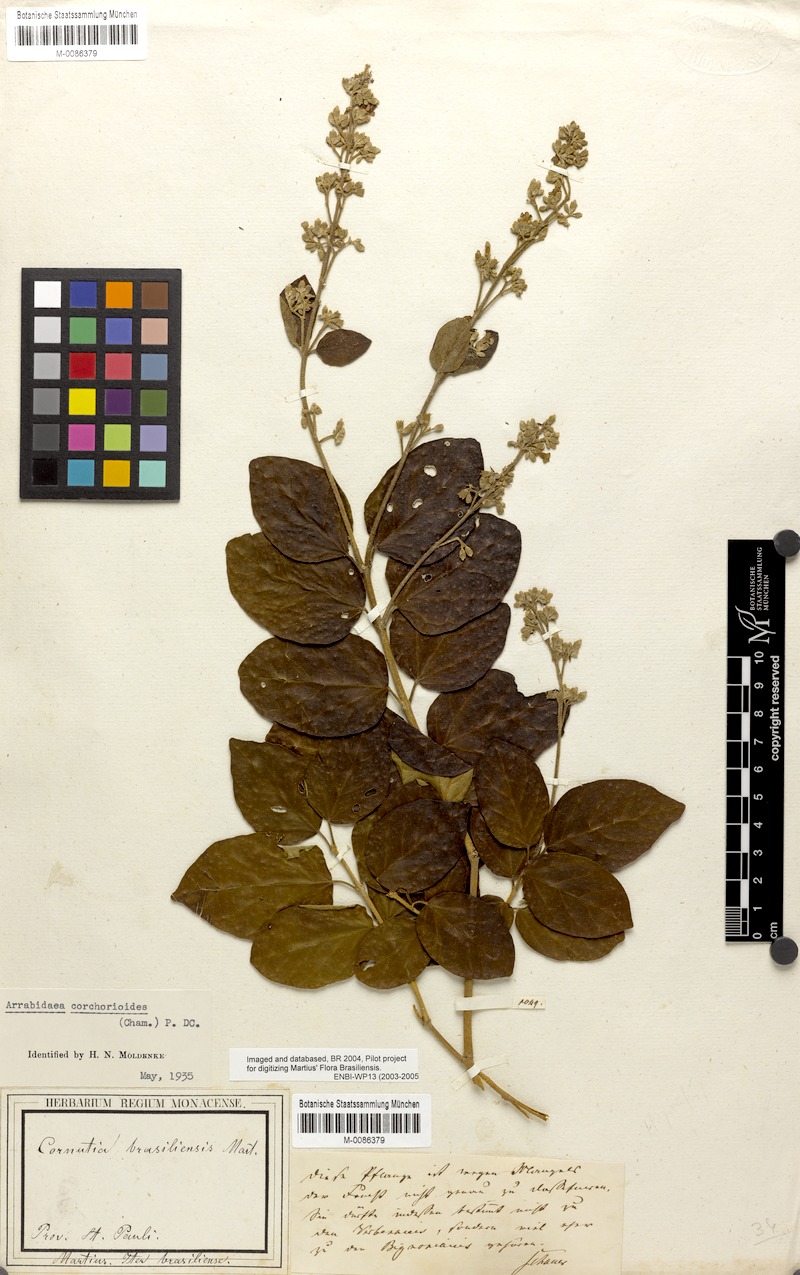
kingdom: Plantae
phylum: Tracheophyta
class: Magnoliopsida
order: Lamiales
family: Bignoniaceae
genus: Xylophragma
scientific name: Xylophragma corchoroides
